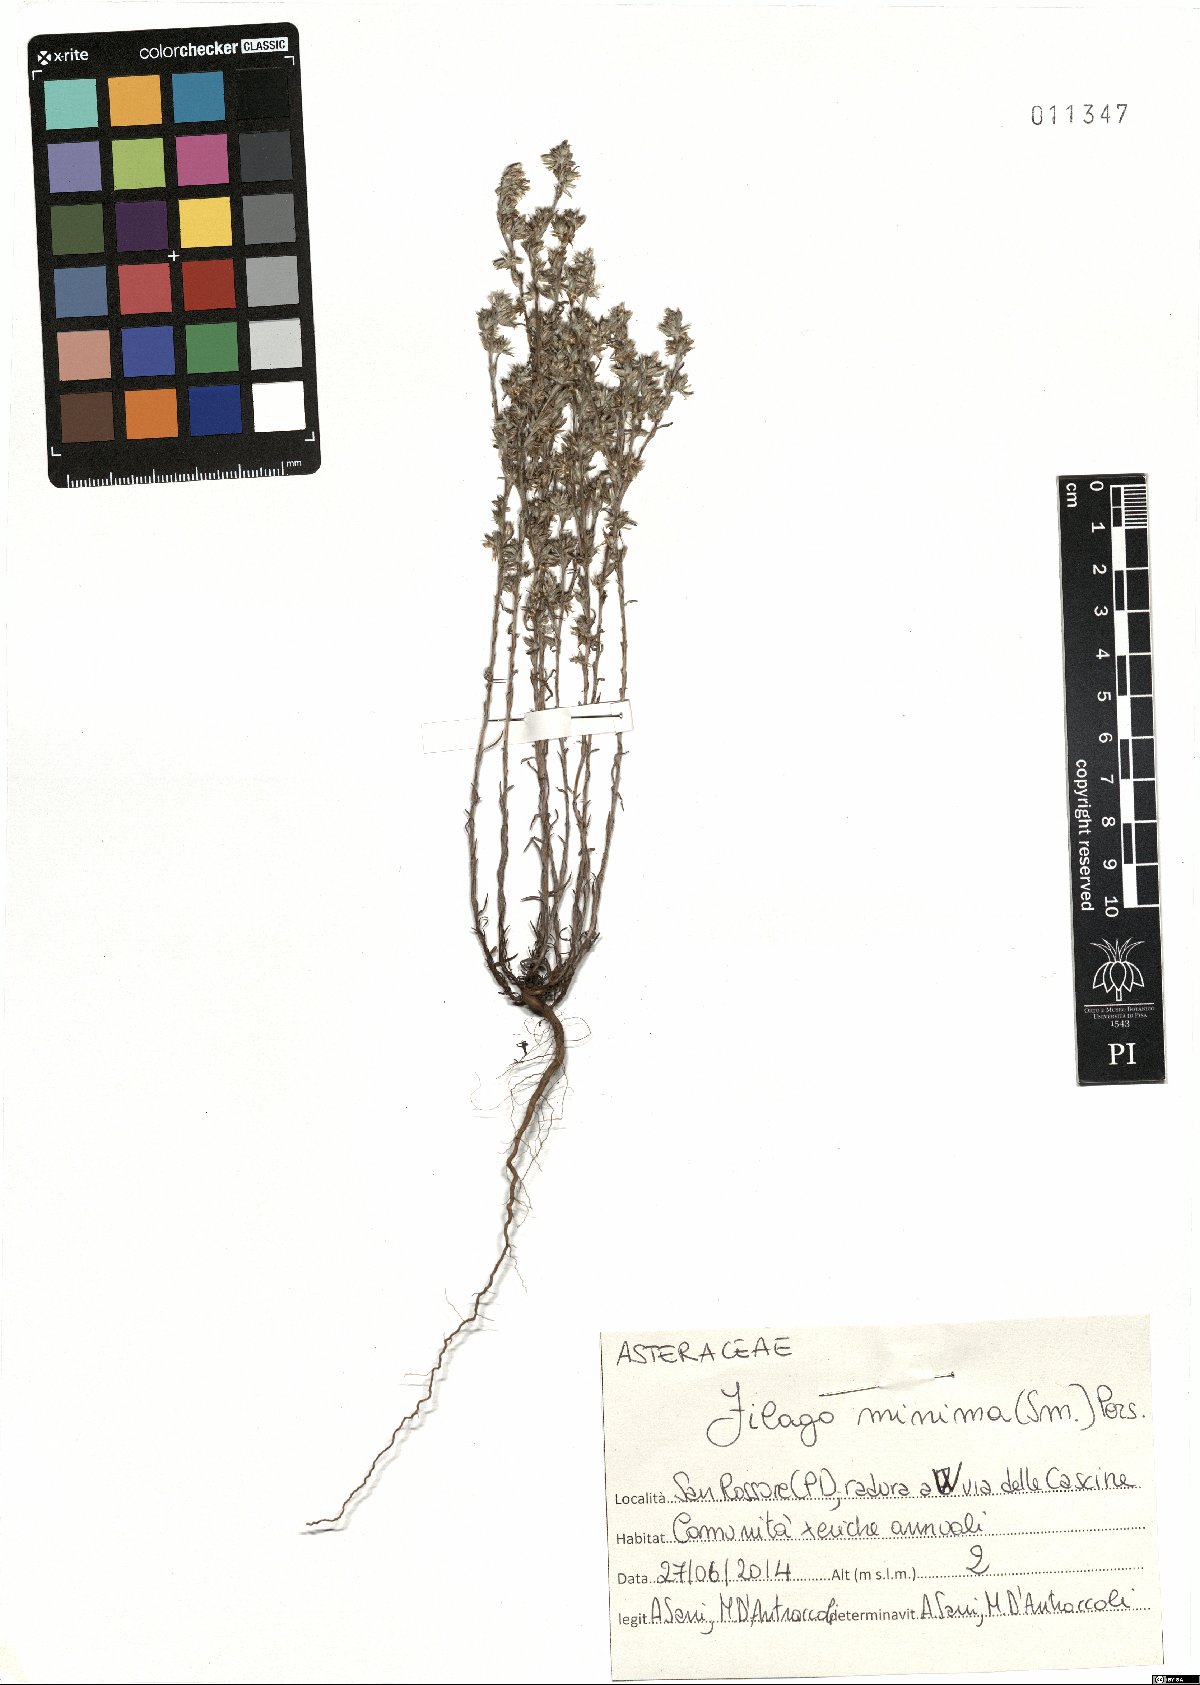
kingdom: Plantae
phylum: Tracheophyta
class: Magnoliopsida
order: Asterales
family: Asteraceae
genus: Logfia
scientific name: Logfia minima
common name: Little cottonrose
